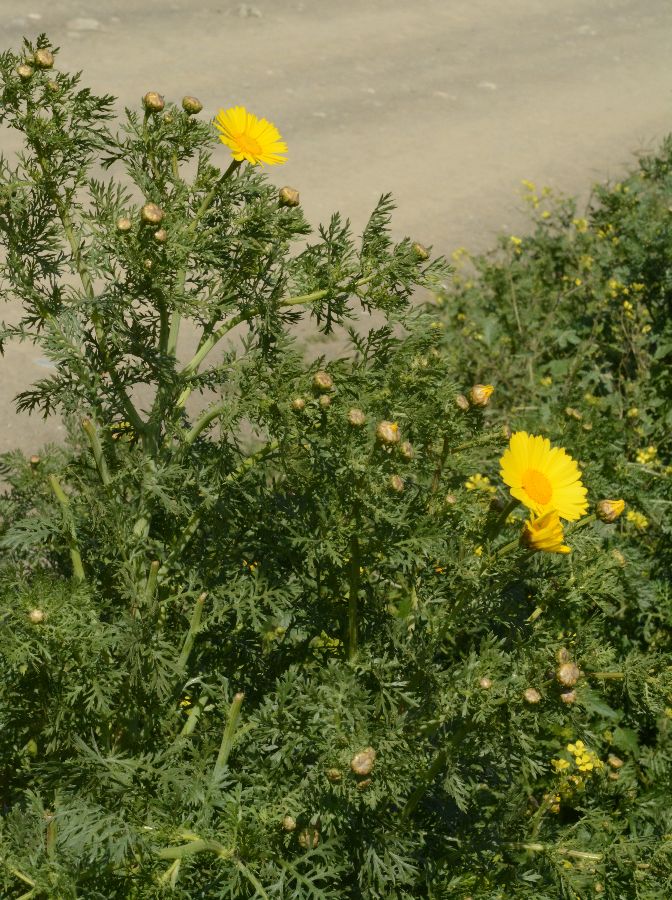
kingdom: Plantae
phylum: Tracheophyta
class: Magnoliopsida
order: Asterales
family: Asteraceae
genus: Glebionis
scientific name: Glebionis coronaria
